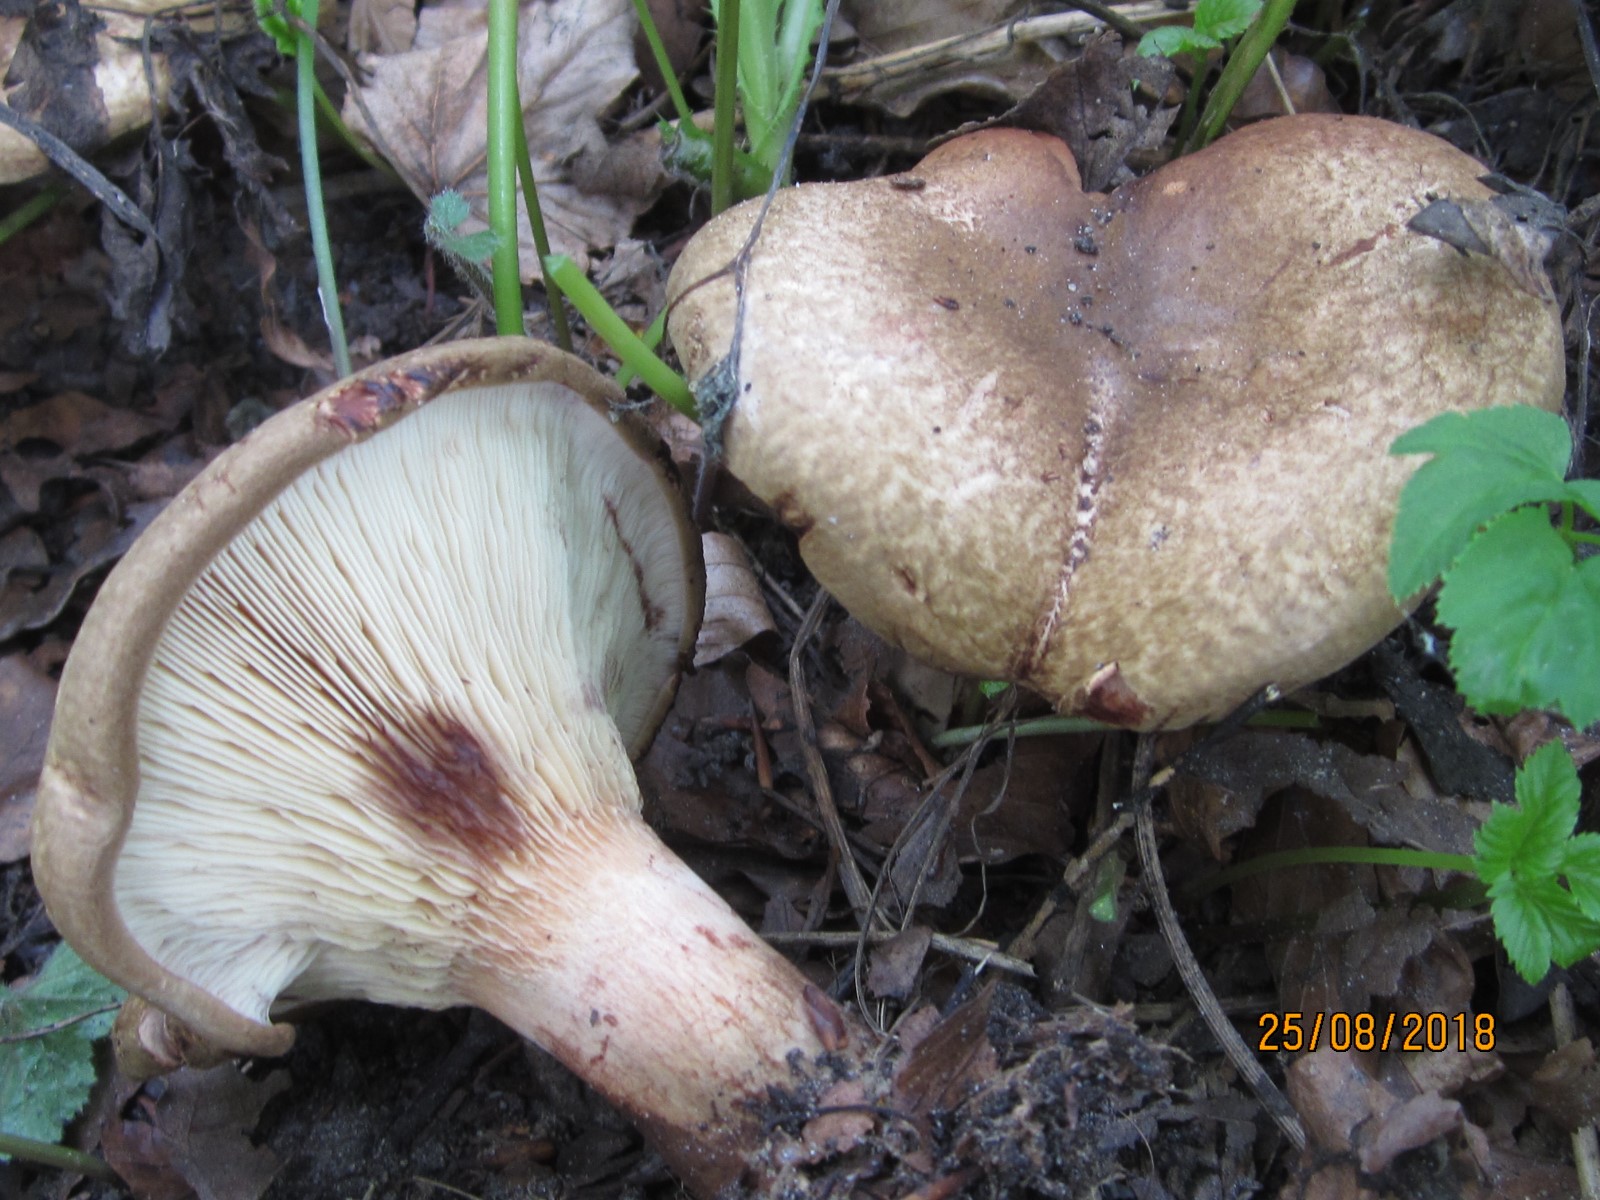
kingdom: Fungi
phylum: Basidiomycota
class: Agaricomycetes
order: Boletales
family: Paxillaceae
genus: Paxillus
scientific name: Paxillus rubicundulus
